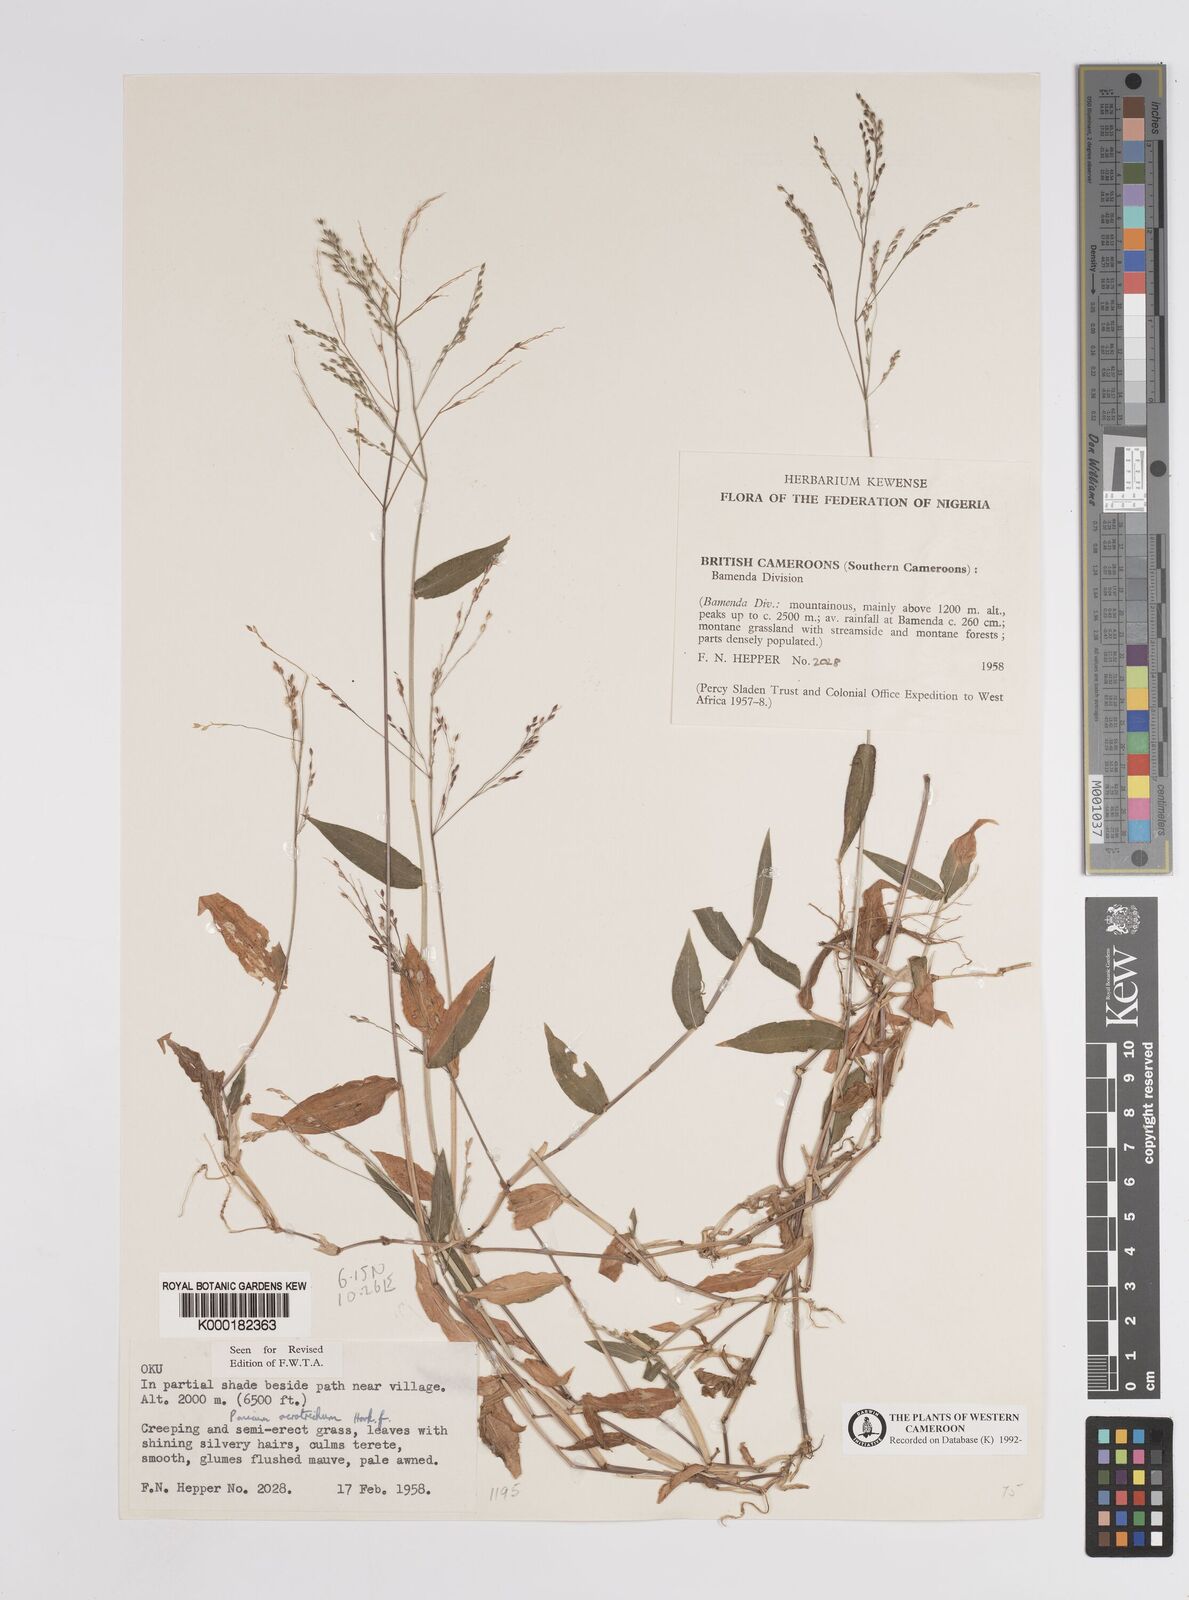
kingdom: Plantae
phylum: Tracheophyta
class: Liliopsida
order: Poales
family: Poaceae
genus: Panicum
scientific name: Panicum acrotrichum
